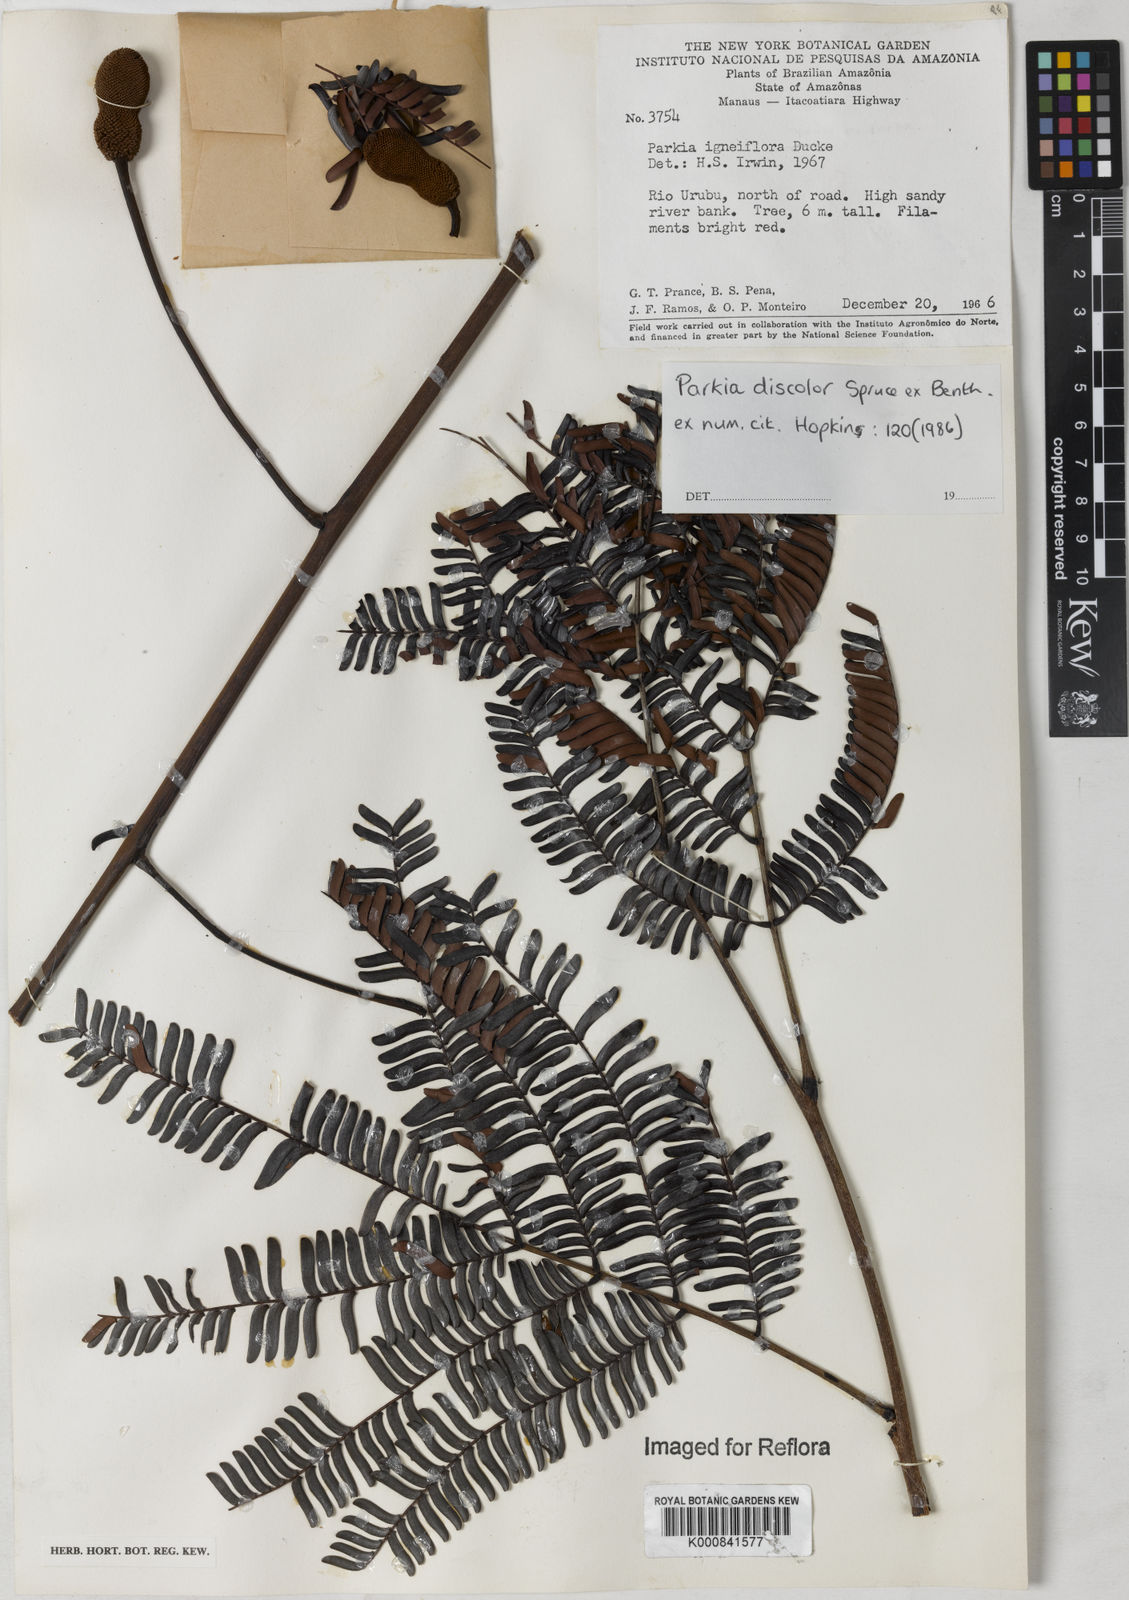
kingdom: Plantae
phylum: Tracheophyta
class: Magnoliopsida
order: Fabales
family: Fabaceae
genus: Parkia
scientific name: Parkia discolor
